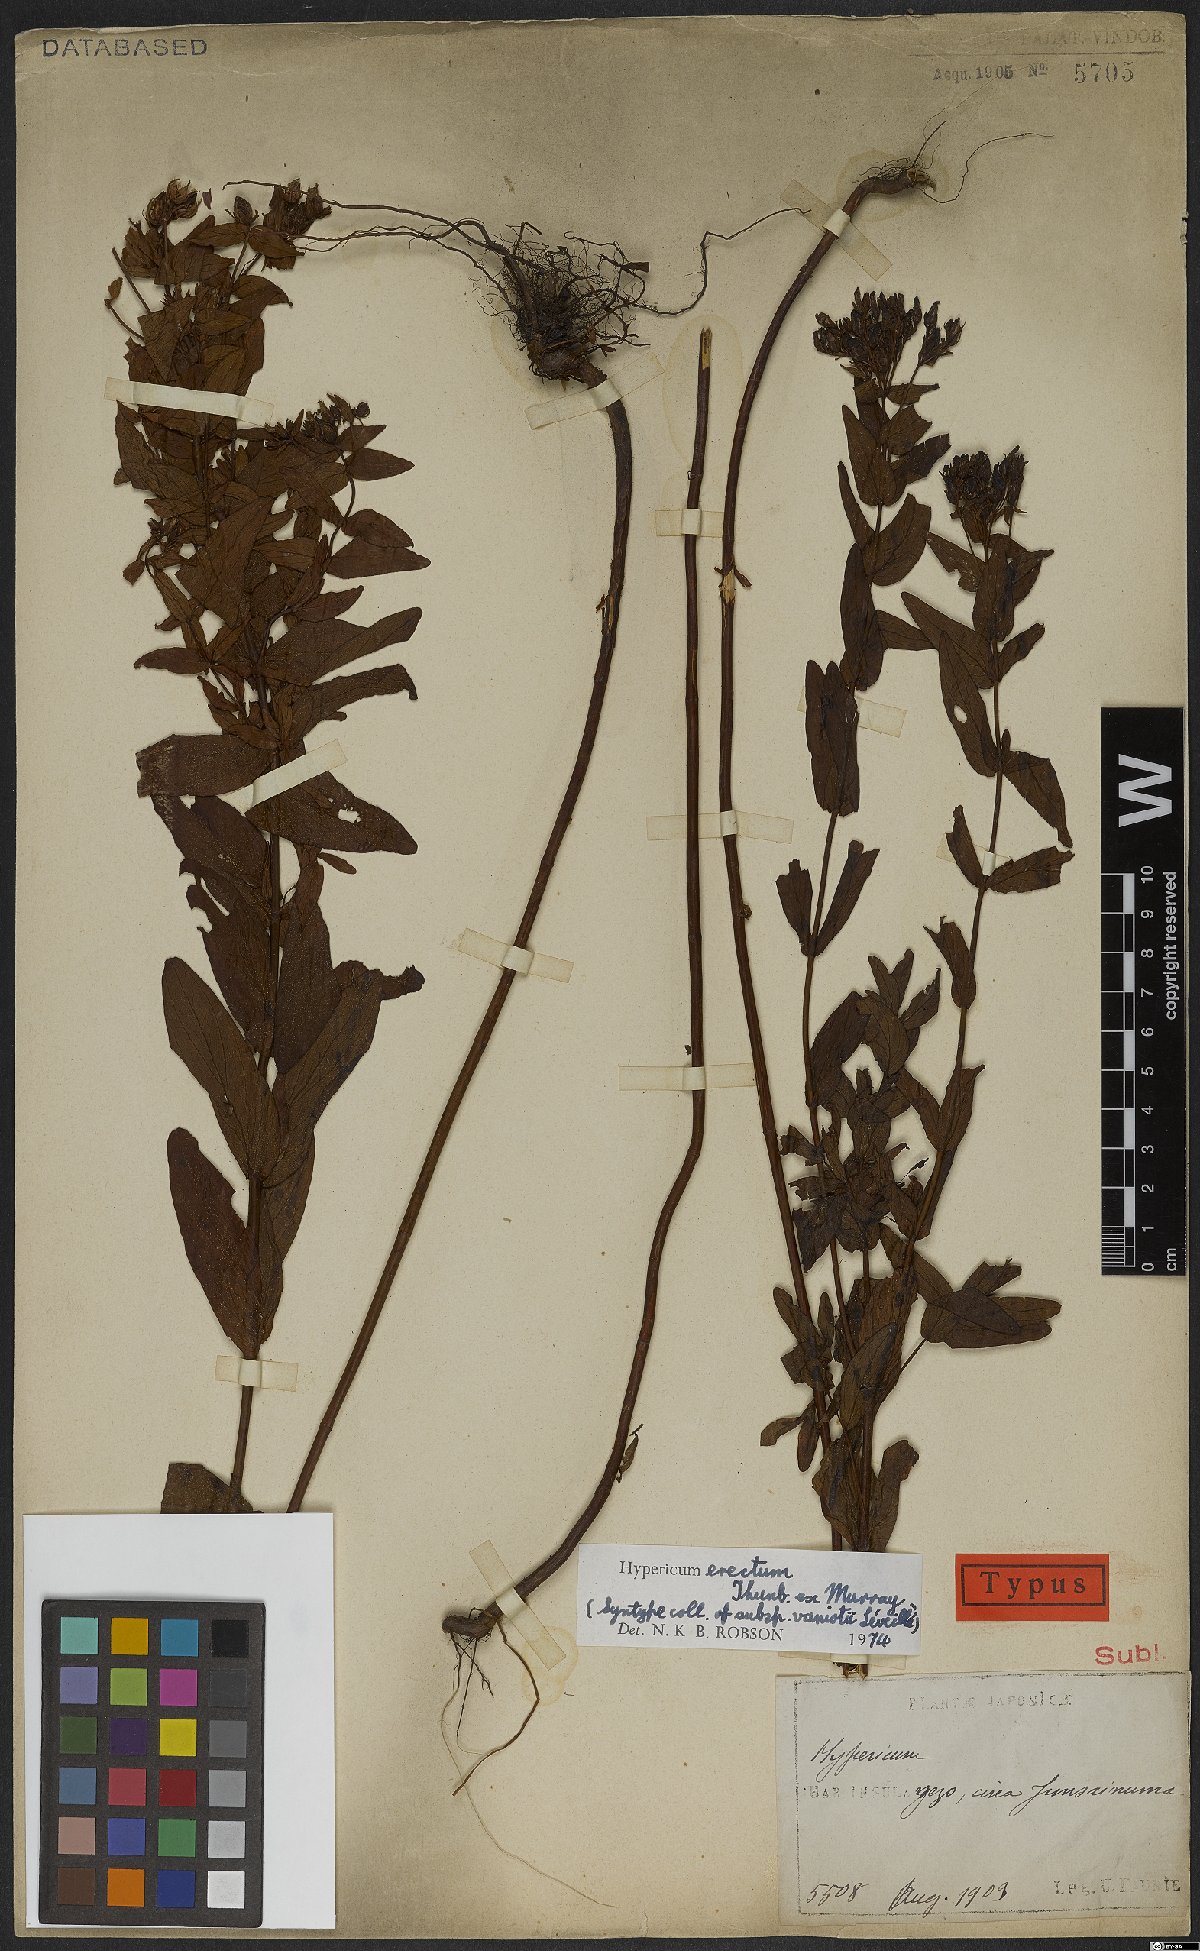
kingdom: Plantae
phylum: Tracheophyta
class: Magnoliopsida
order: Malpighiales
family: Hypericaceae
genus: Hypericum
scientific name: Hypericum erectum
